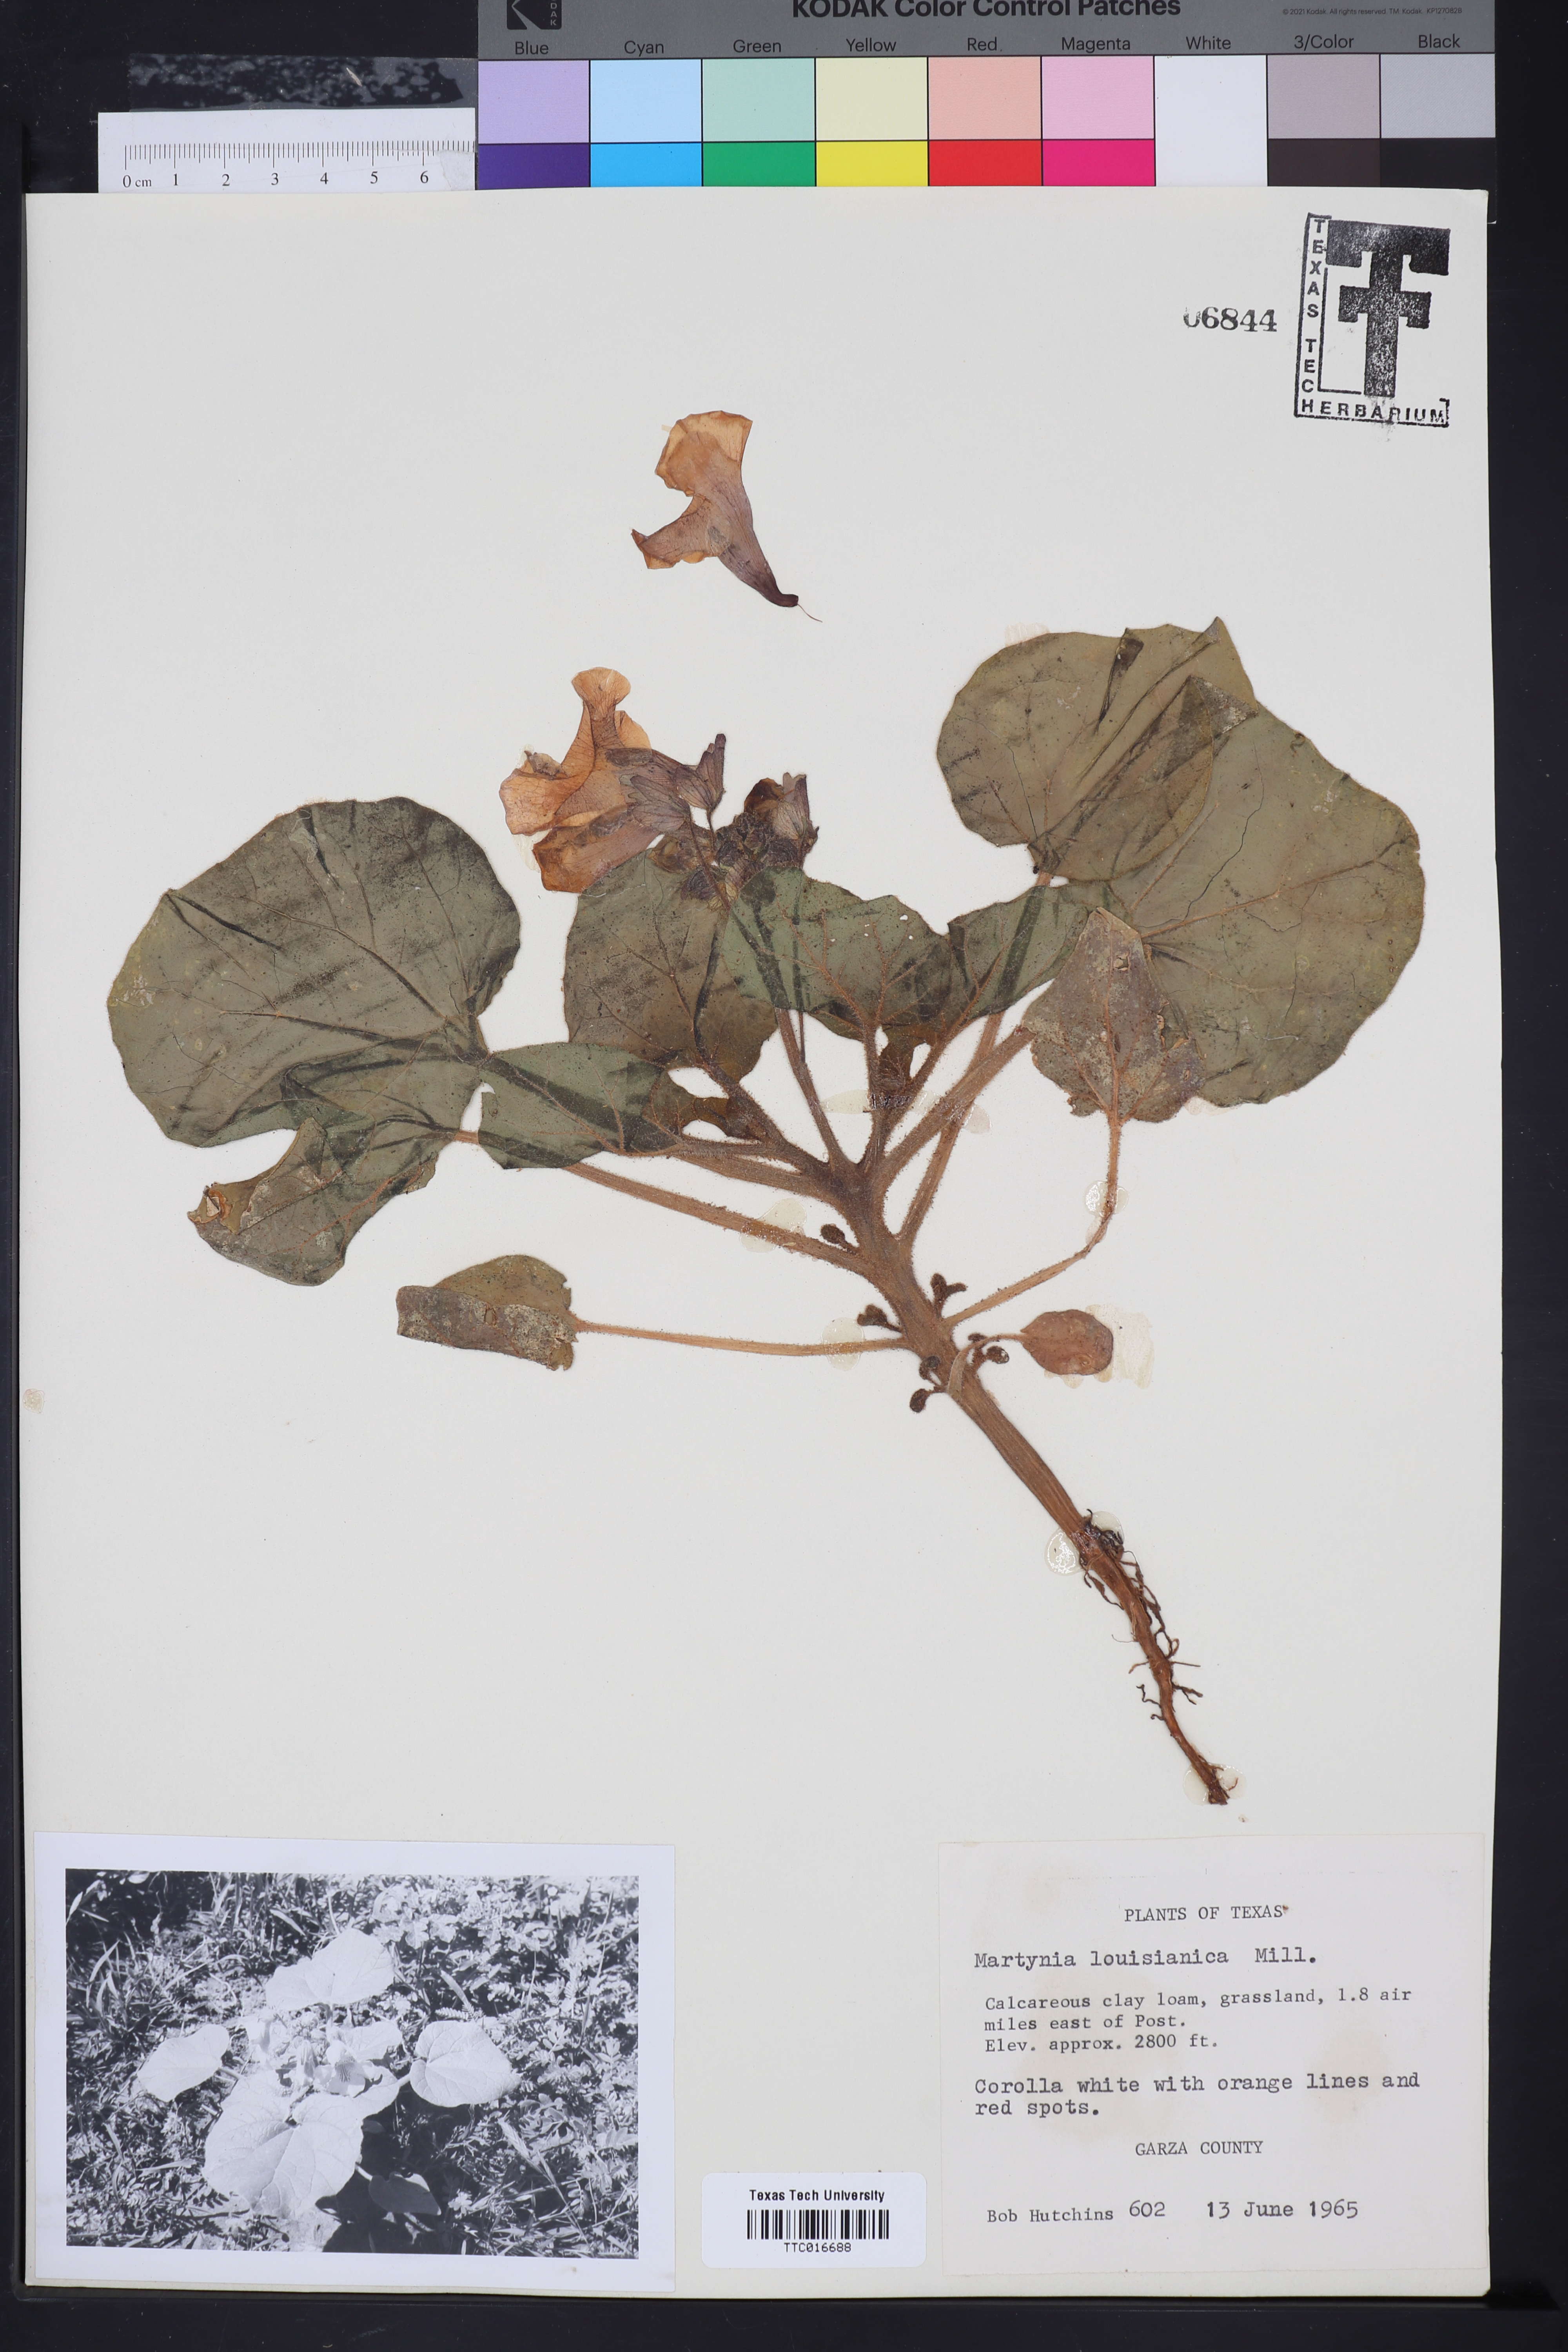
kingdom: Plantae
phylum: Tracheophyta
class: Magnoliopsida
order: Lamiales
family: Martyniaceae
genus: Proboscidea
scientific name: Proboscidea louisianica
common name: Elephant tusks
